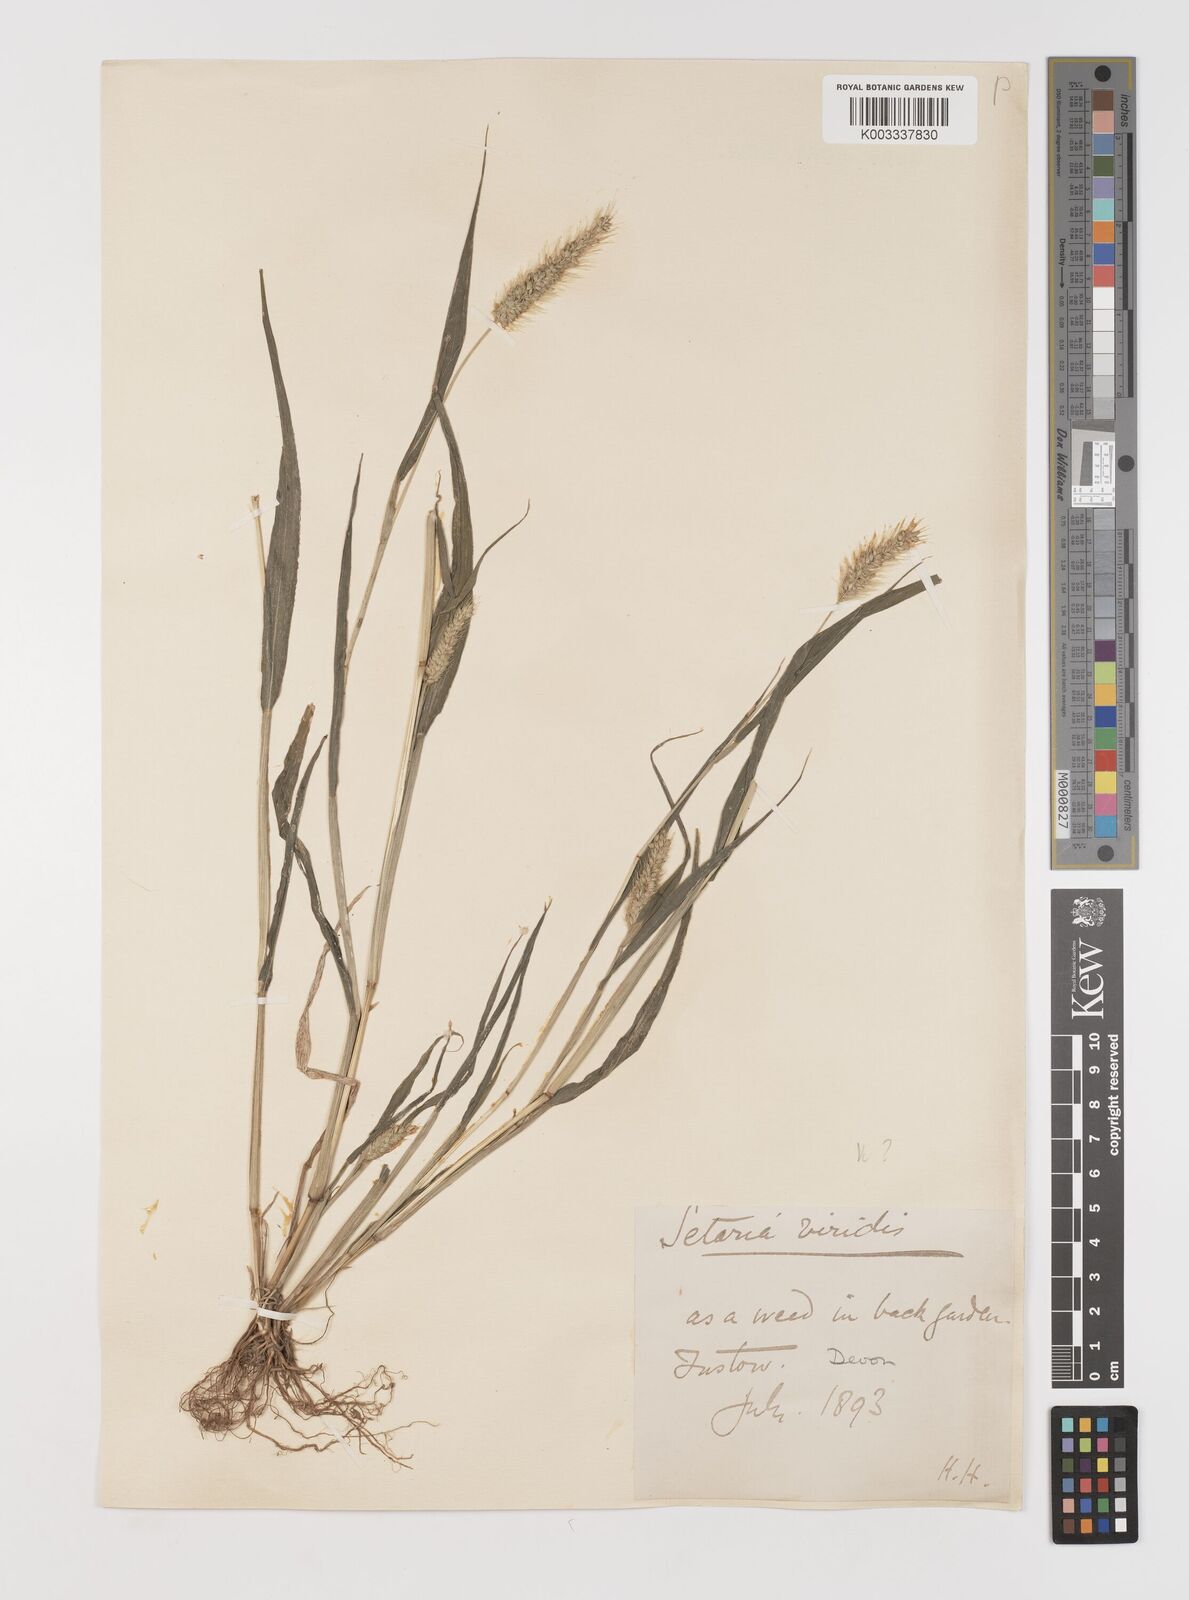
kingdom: Plantae
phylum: Tracheophyta
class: Liliopsida
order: Poales
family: Poaceae
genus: Setaria
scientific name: Setaria viridis
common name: Green bristlegrass
